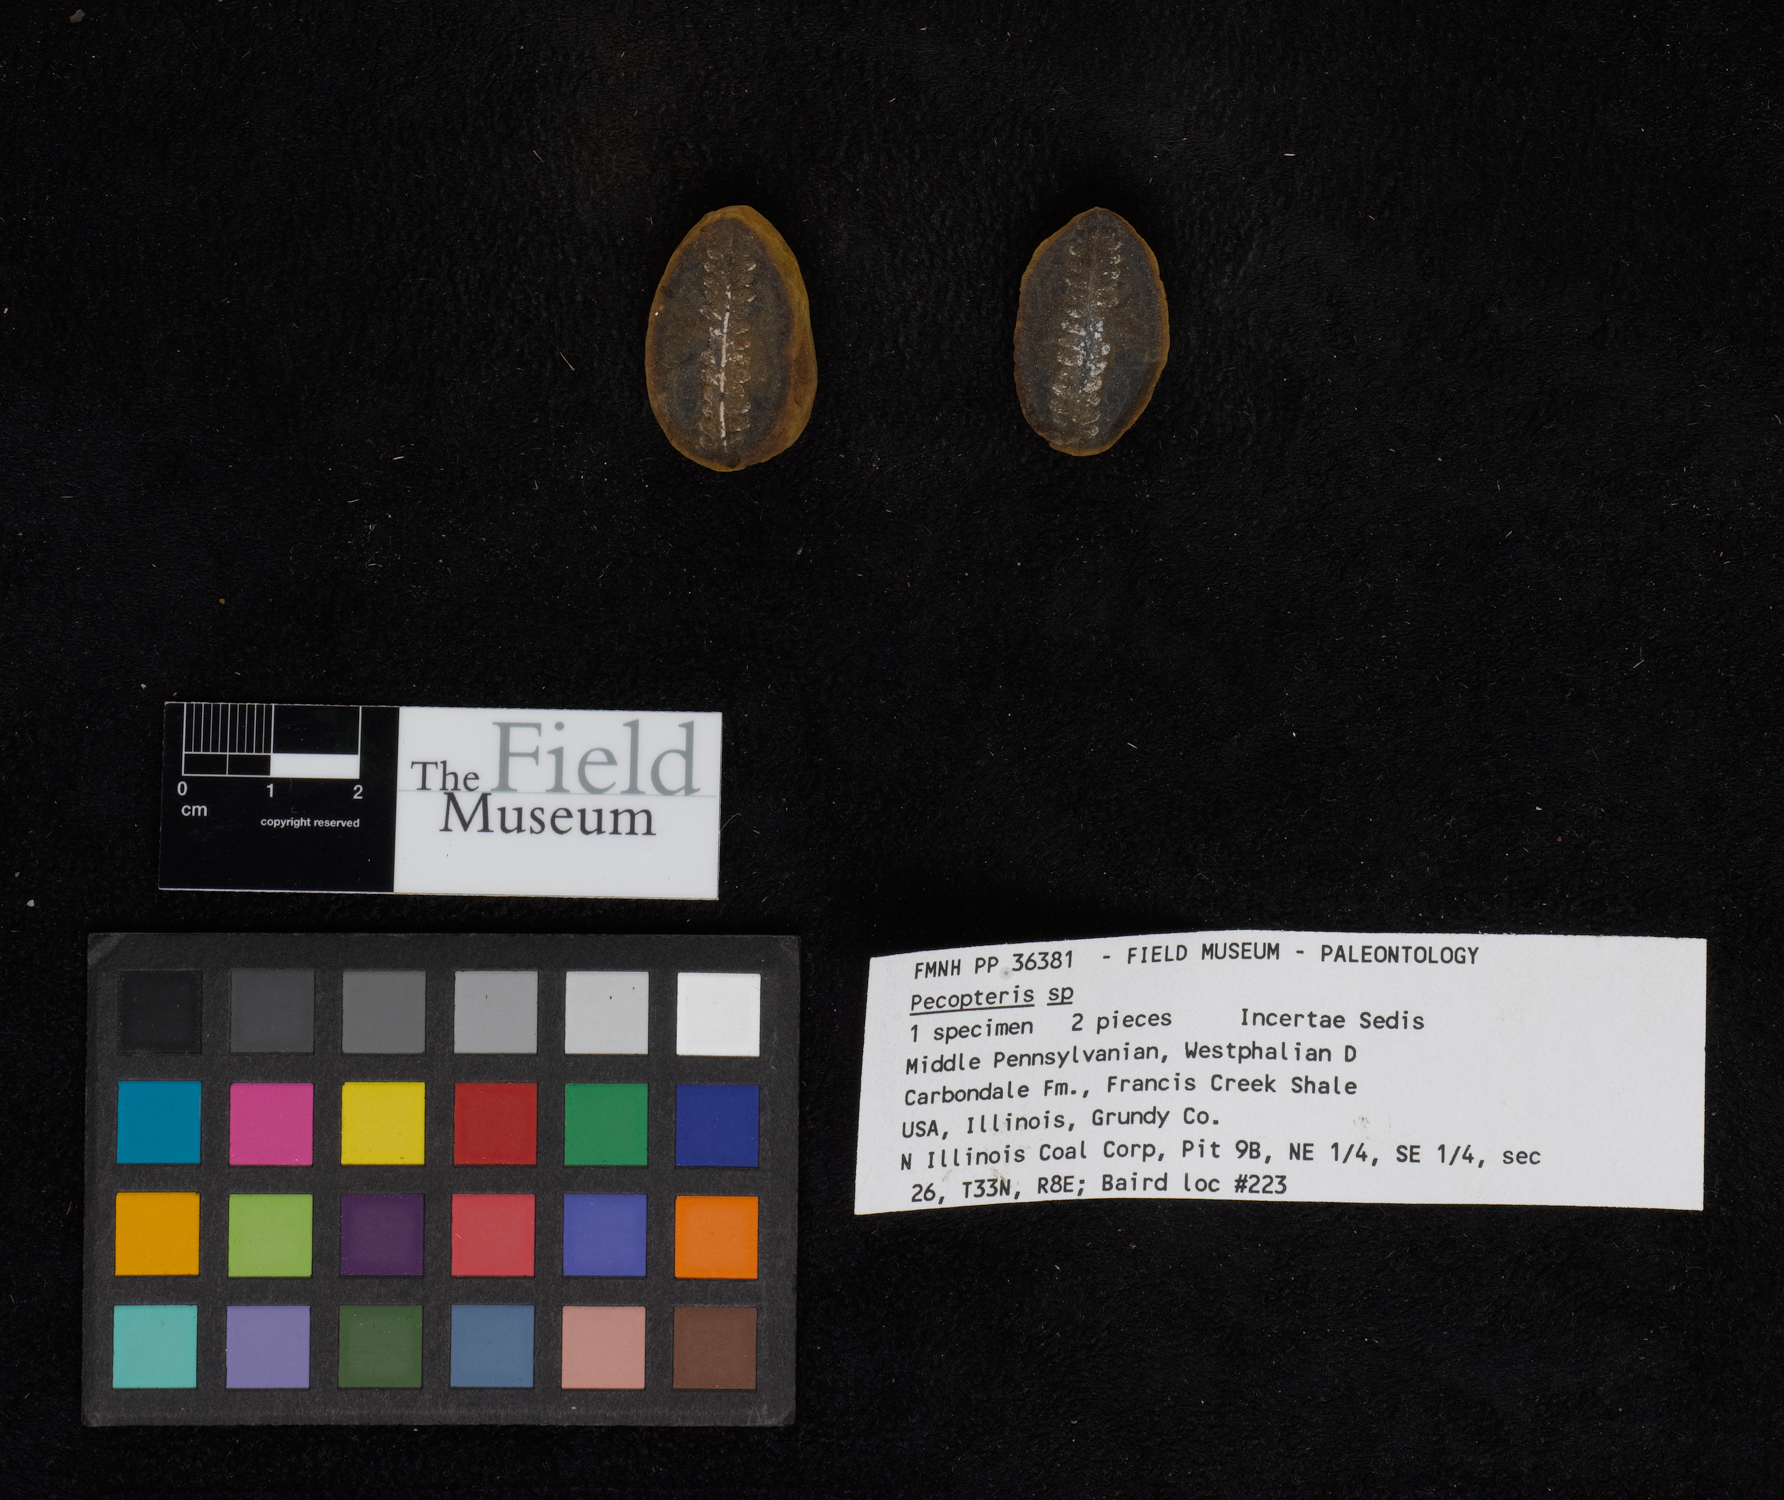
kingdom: Plantae
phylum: Tracheophyta
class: Polypodiopsida
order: Marattiales
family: Asterothecaceae
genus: Pecopteris
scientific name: Pecopteris
